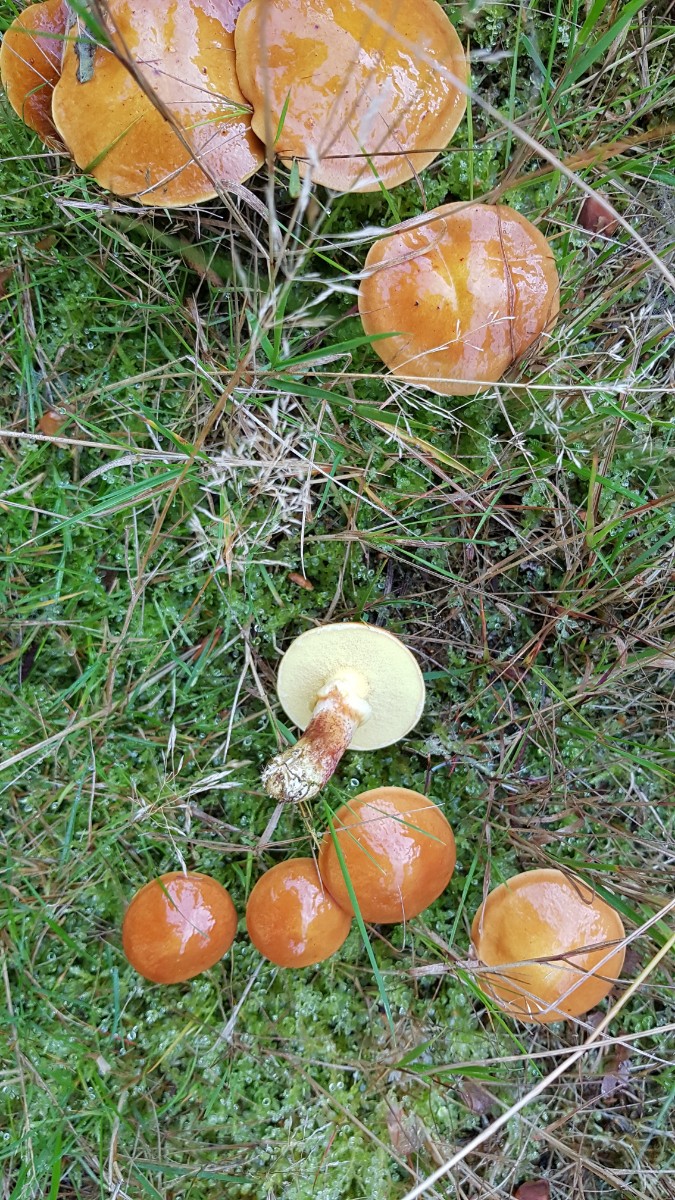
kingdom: Fungi
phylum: Basidiomycota
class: Agaricomycetes
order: Boletales
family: Suillaceae
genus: Suillus
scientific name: Suillus grevillei
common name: lærke-slimrørhat
